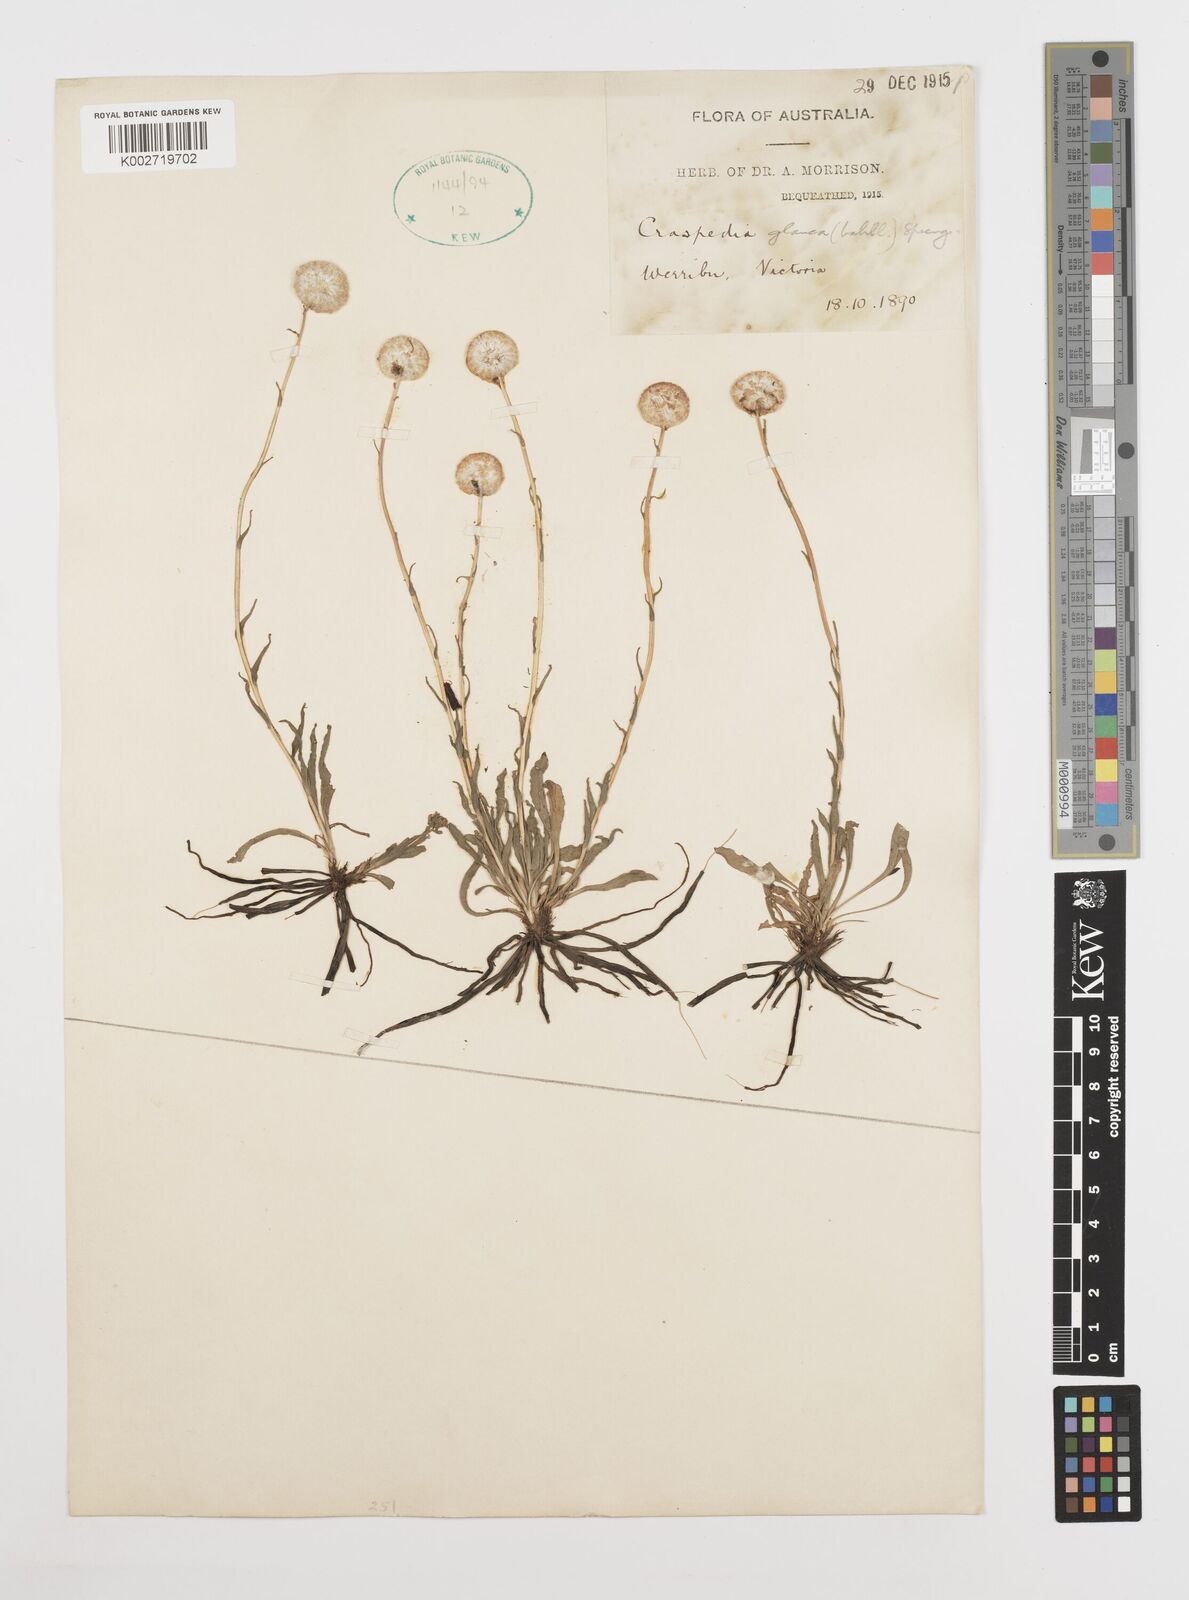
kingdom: Plantae
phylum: Tracheophyta
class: Magnoliopsida
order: Asterales
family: Asteraceae
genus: Craspedia
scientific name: Craspedia glauca
